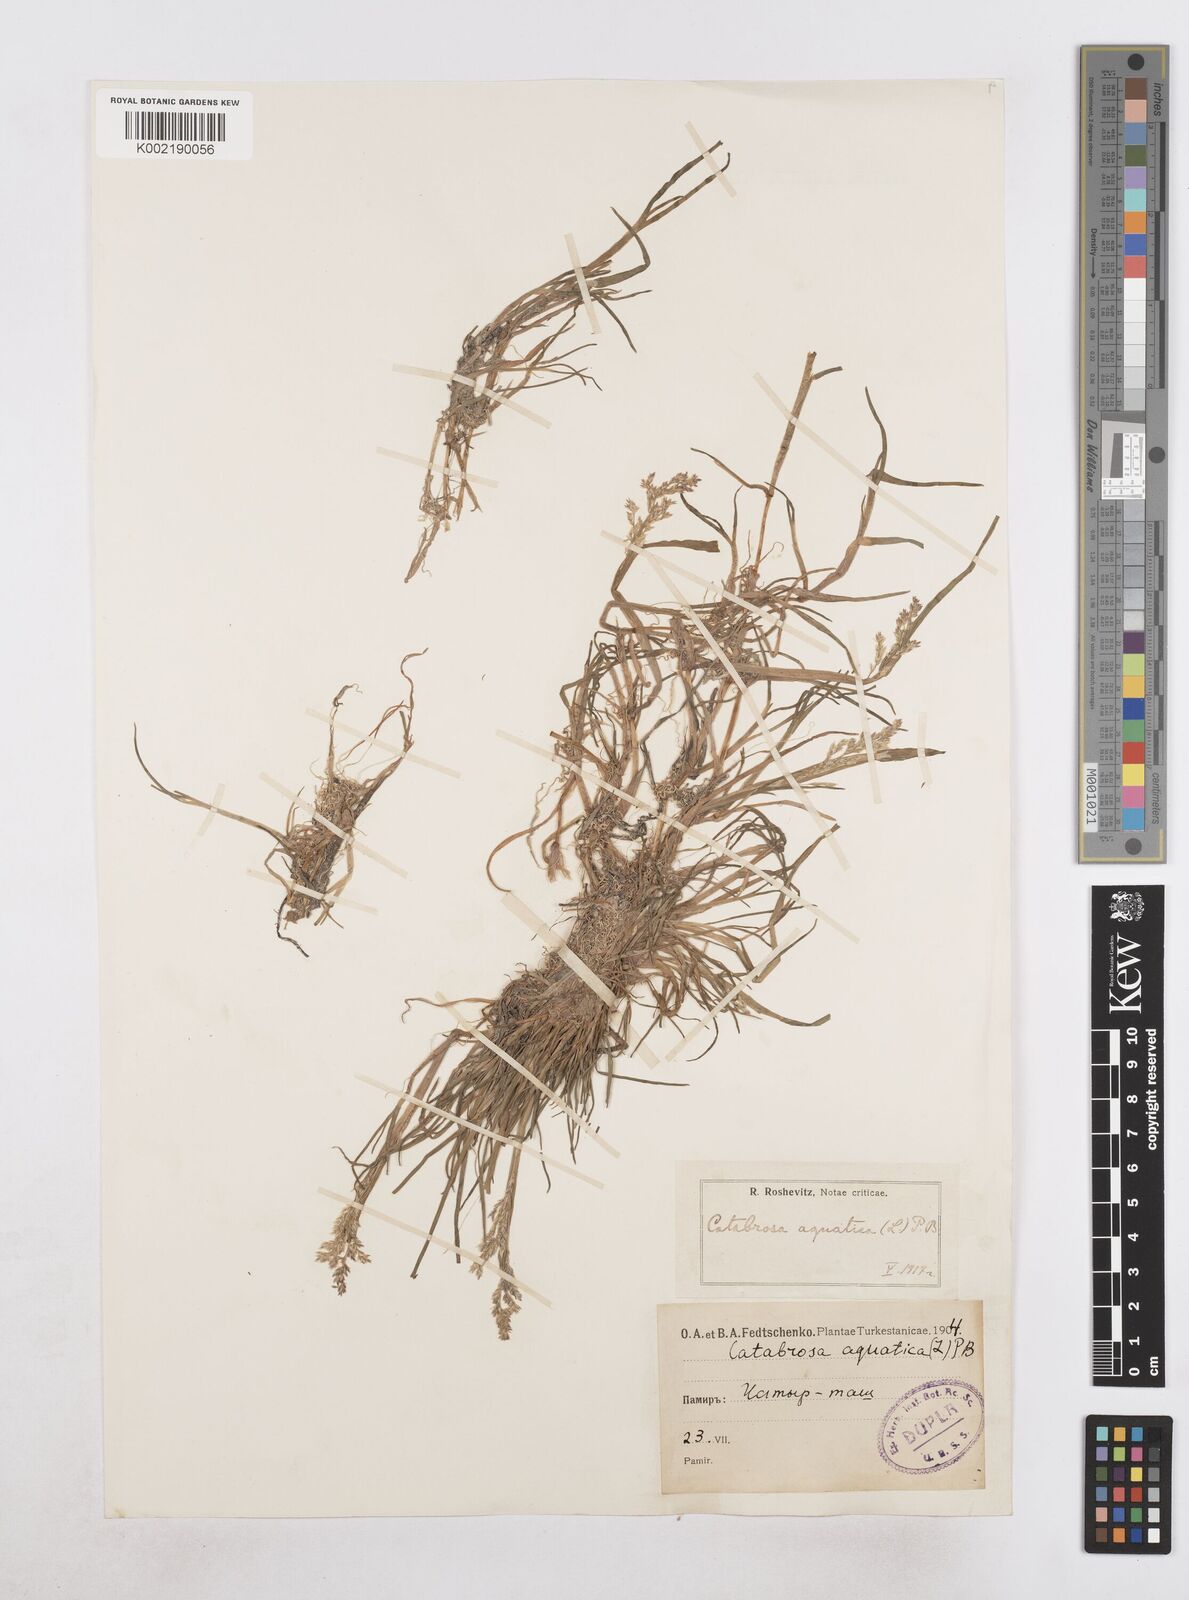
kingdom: Plantae
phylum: Tracheophyta
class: Liliopsida
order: Poales
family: Poaceae
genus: Catabrosa
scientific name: Catabrosa aquatica
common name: Whorl-grass
